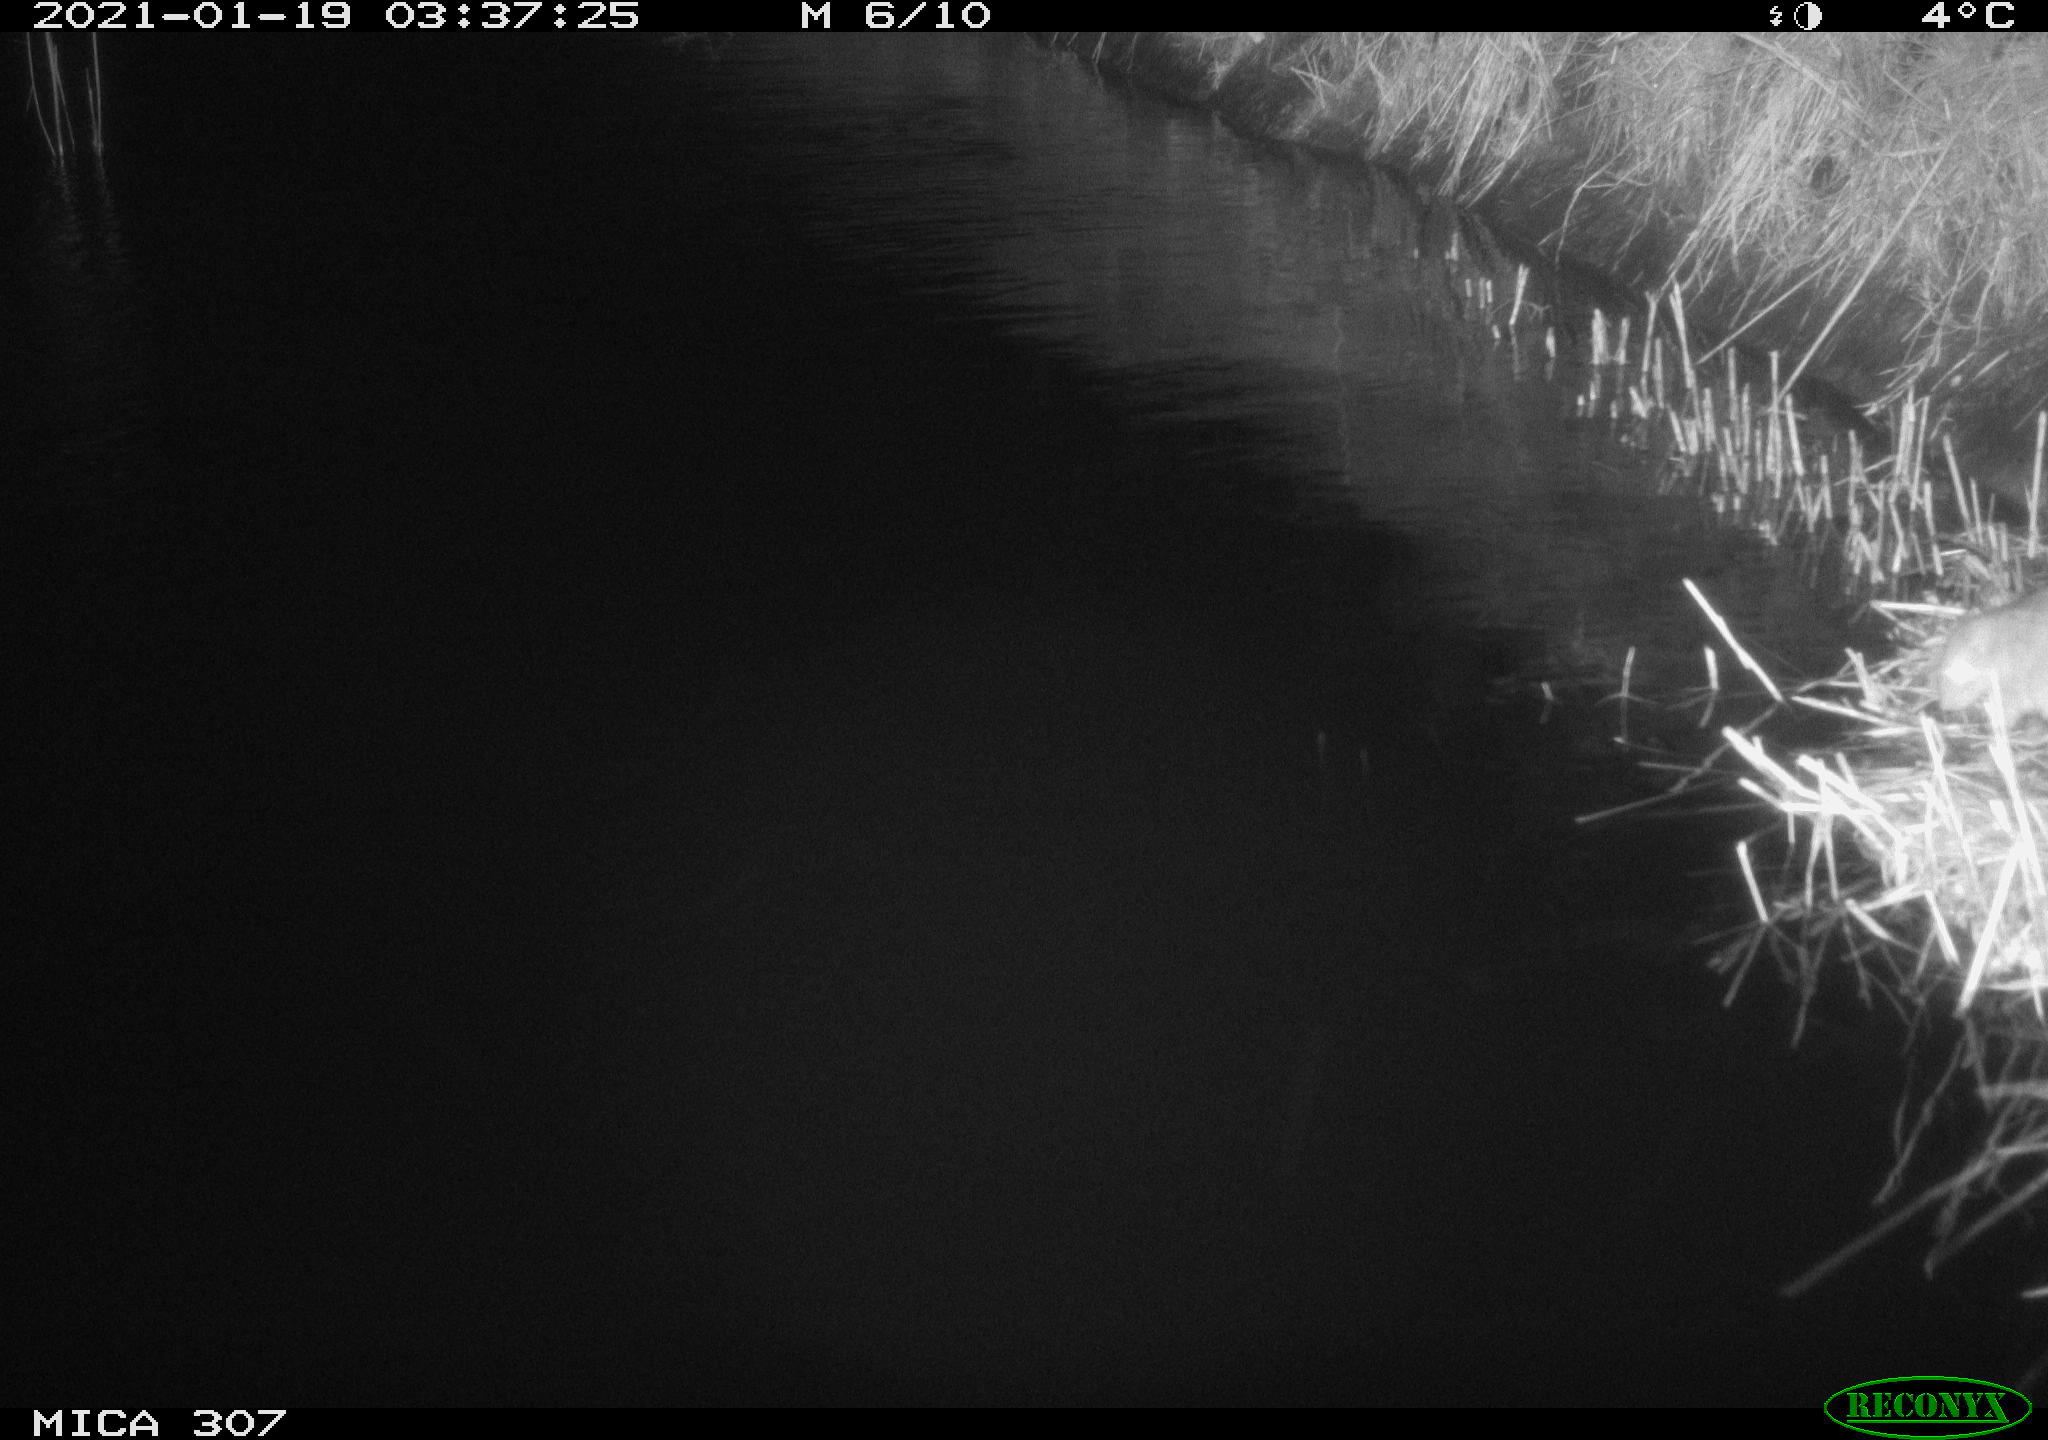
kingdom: Animalia
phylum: Chordata
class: Mammalia
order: Rodentia
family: Muridae
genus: Rattus
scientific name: Rattus norvegicus
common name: Brown rat
